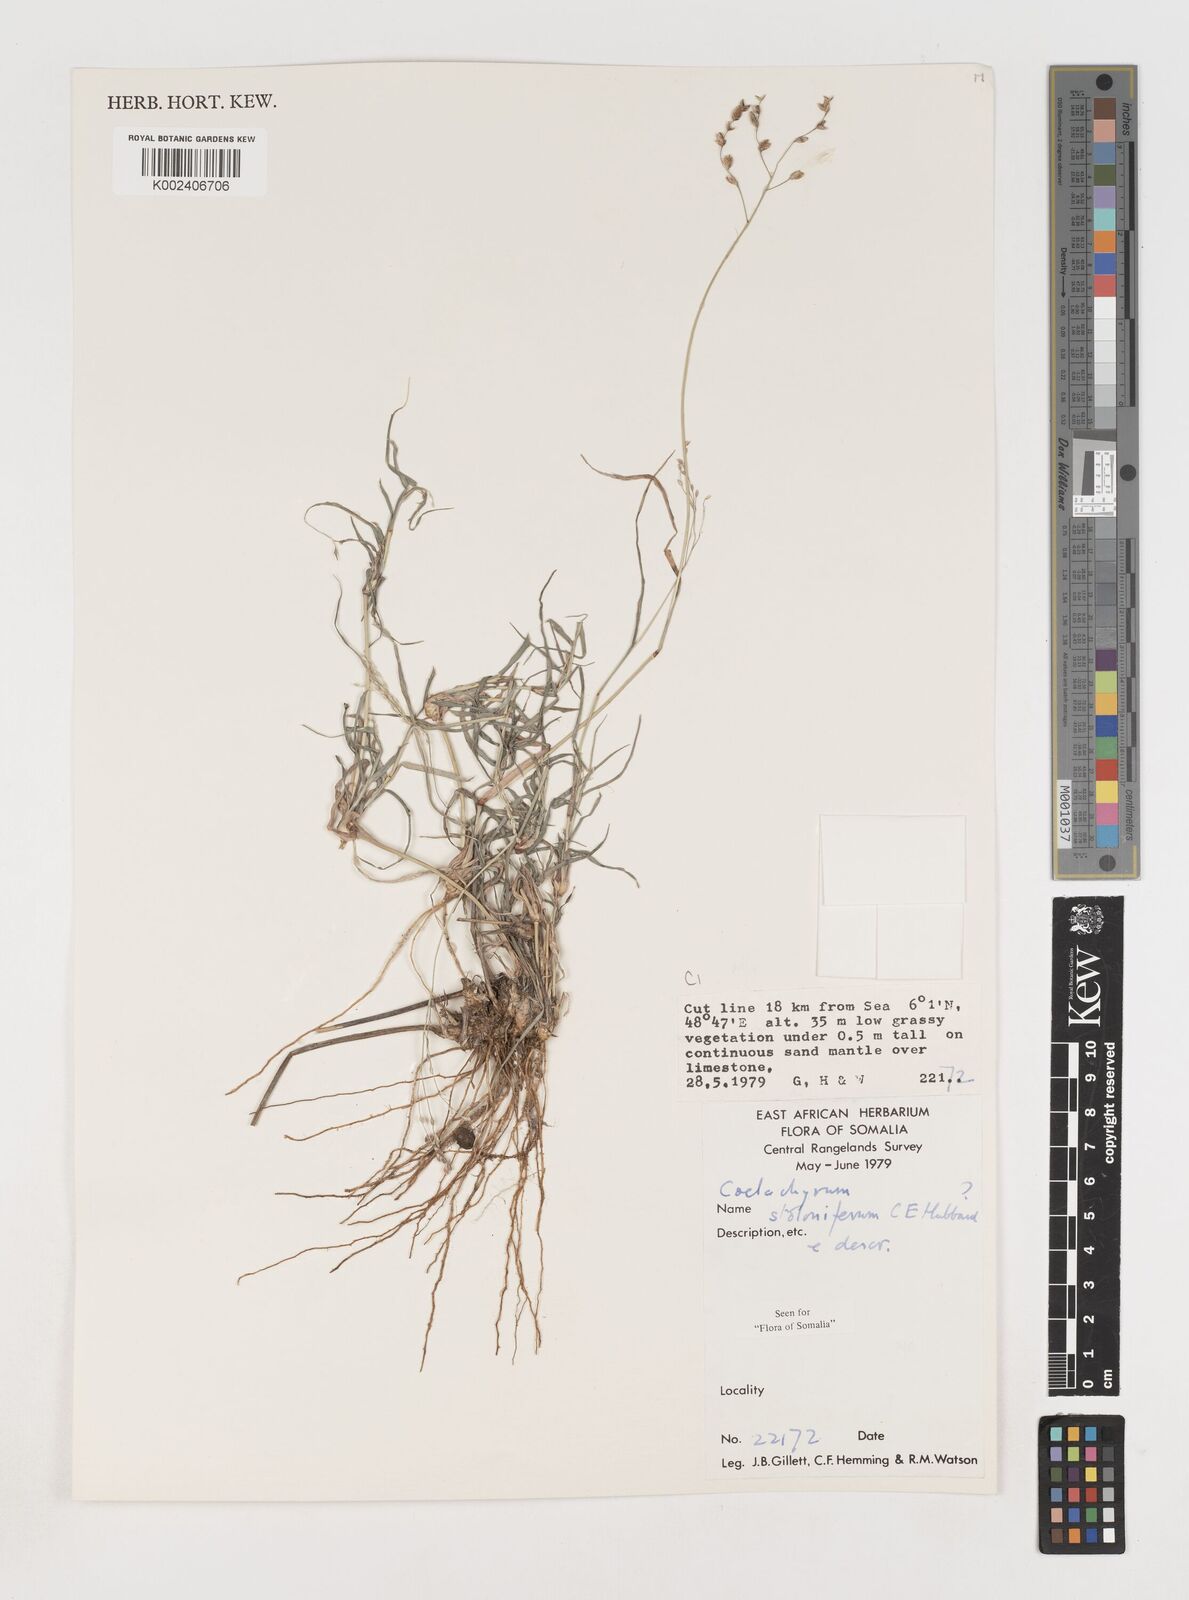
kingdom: Plantae
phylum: Tracheophyta
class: Liliopsida
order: Poales
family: Poaceae
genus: Coelachyrum
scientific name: Coelachyrum piercei
